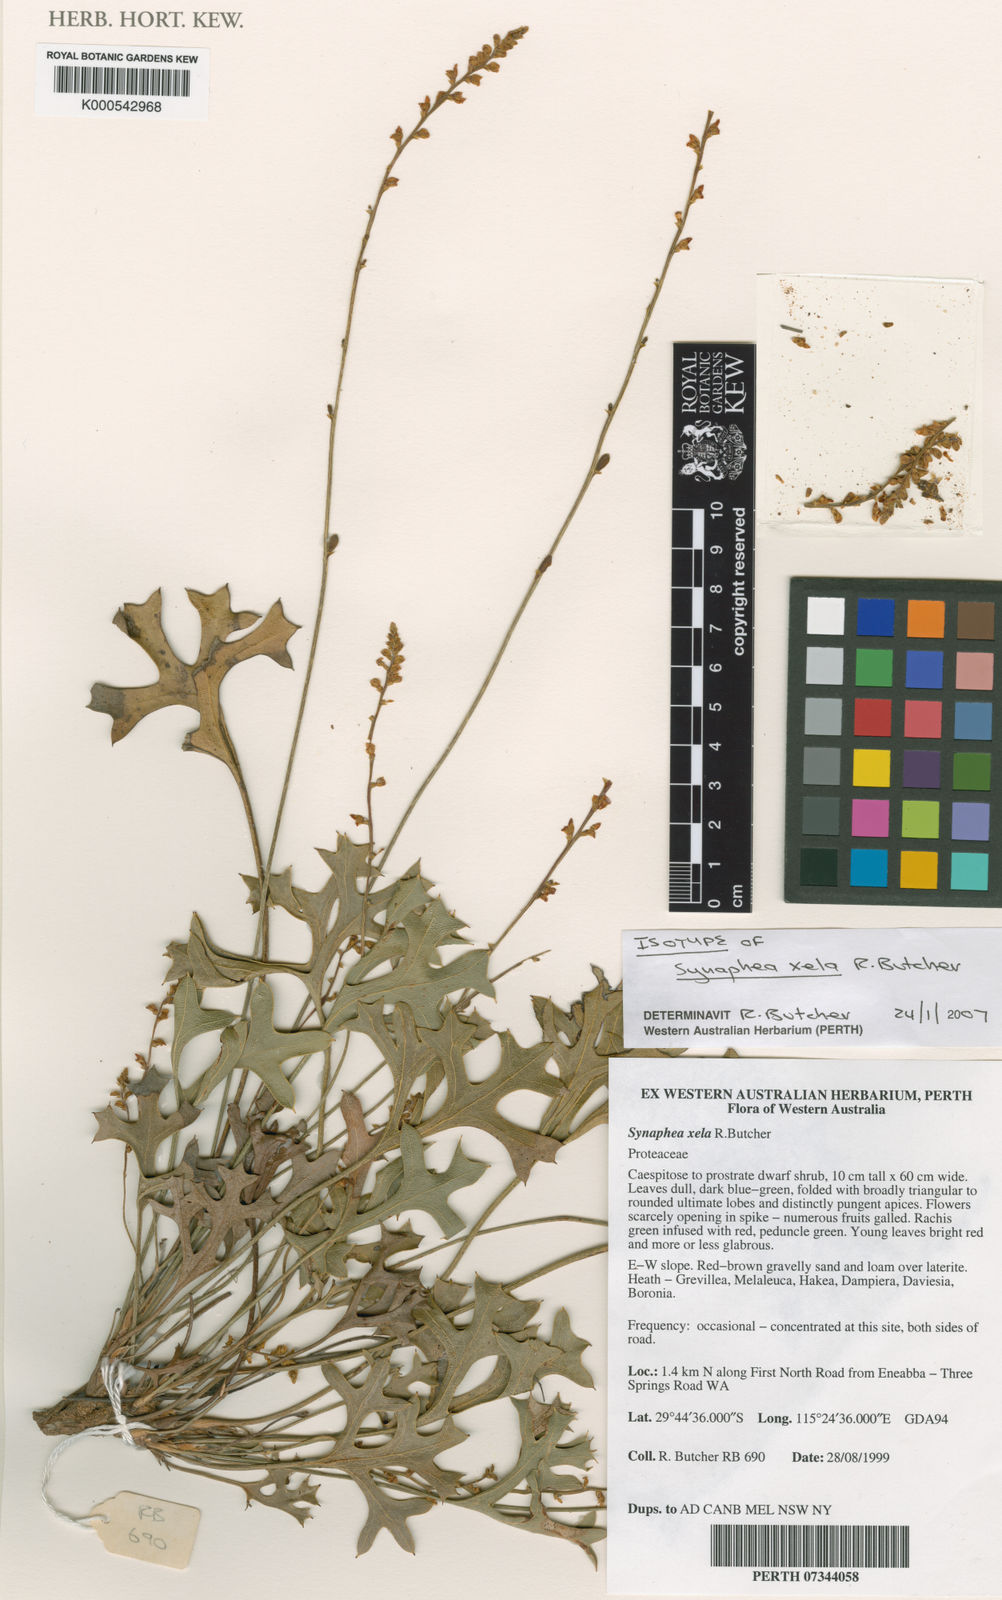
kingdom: Plantae
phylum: Tracheophyta
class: Magnoliopsida
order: Proteales
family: Proteaceae
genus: Synaphea
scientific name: Synaphea xela
